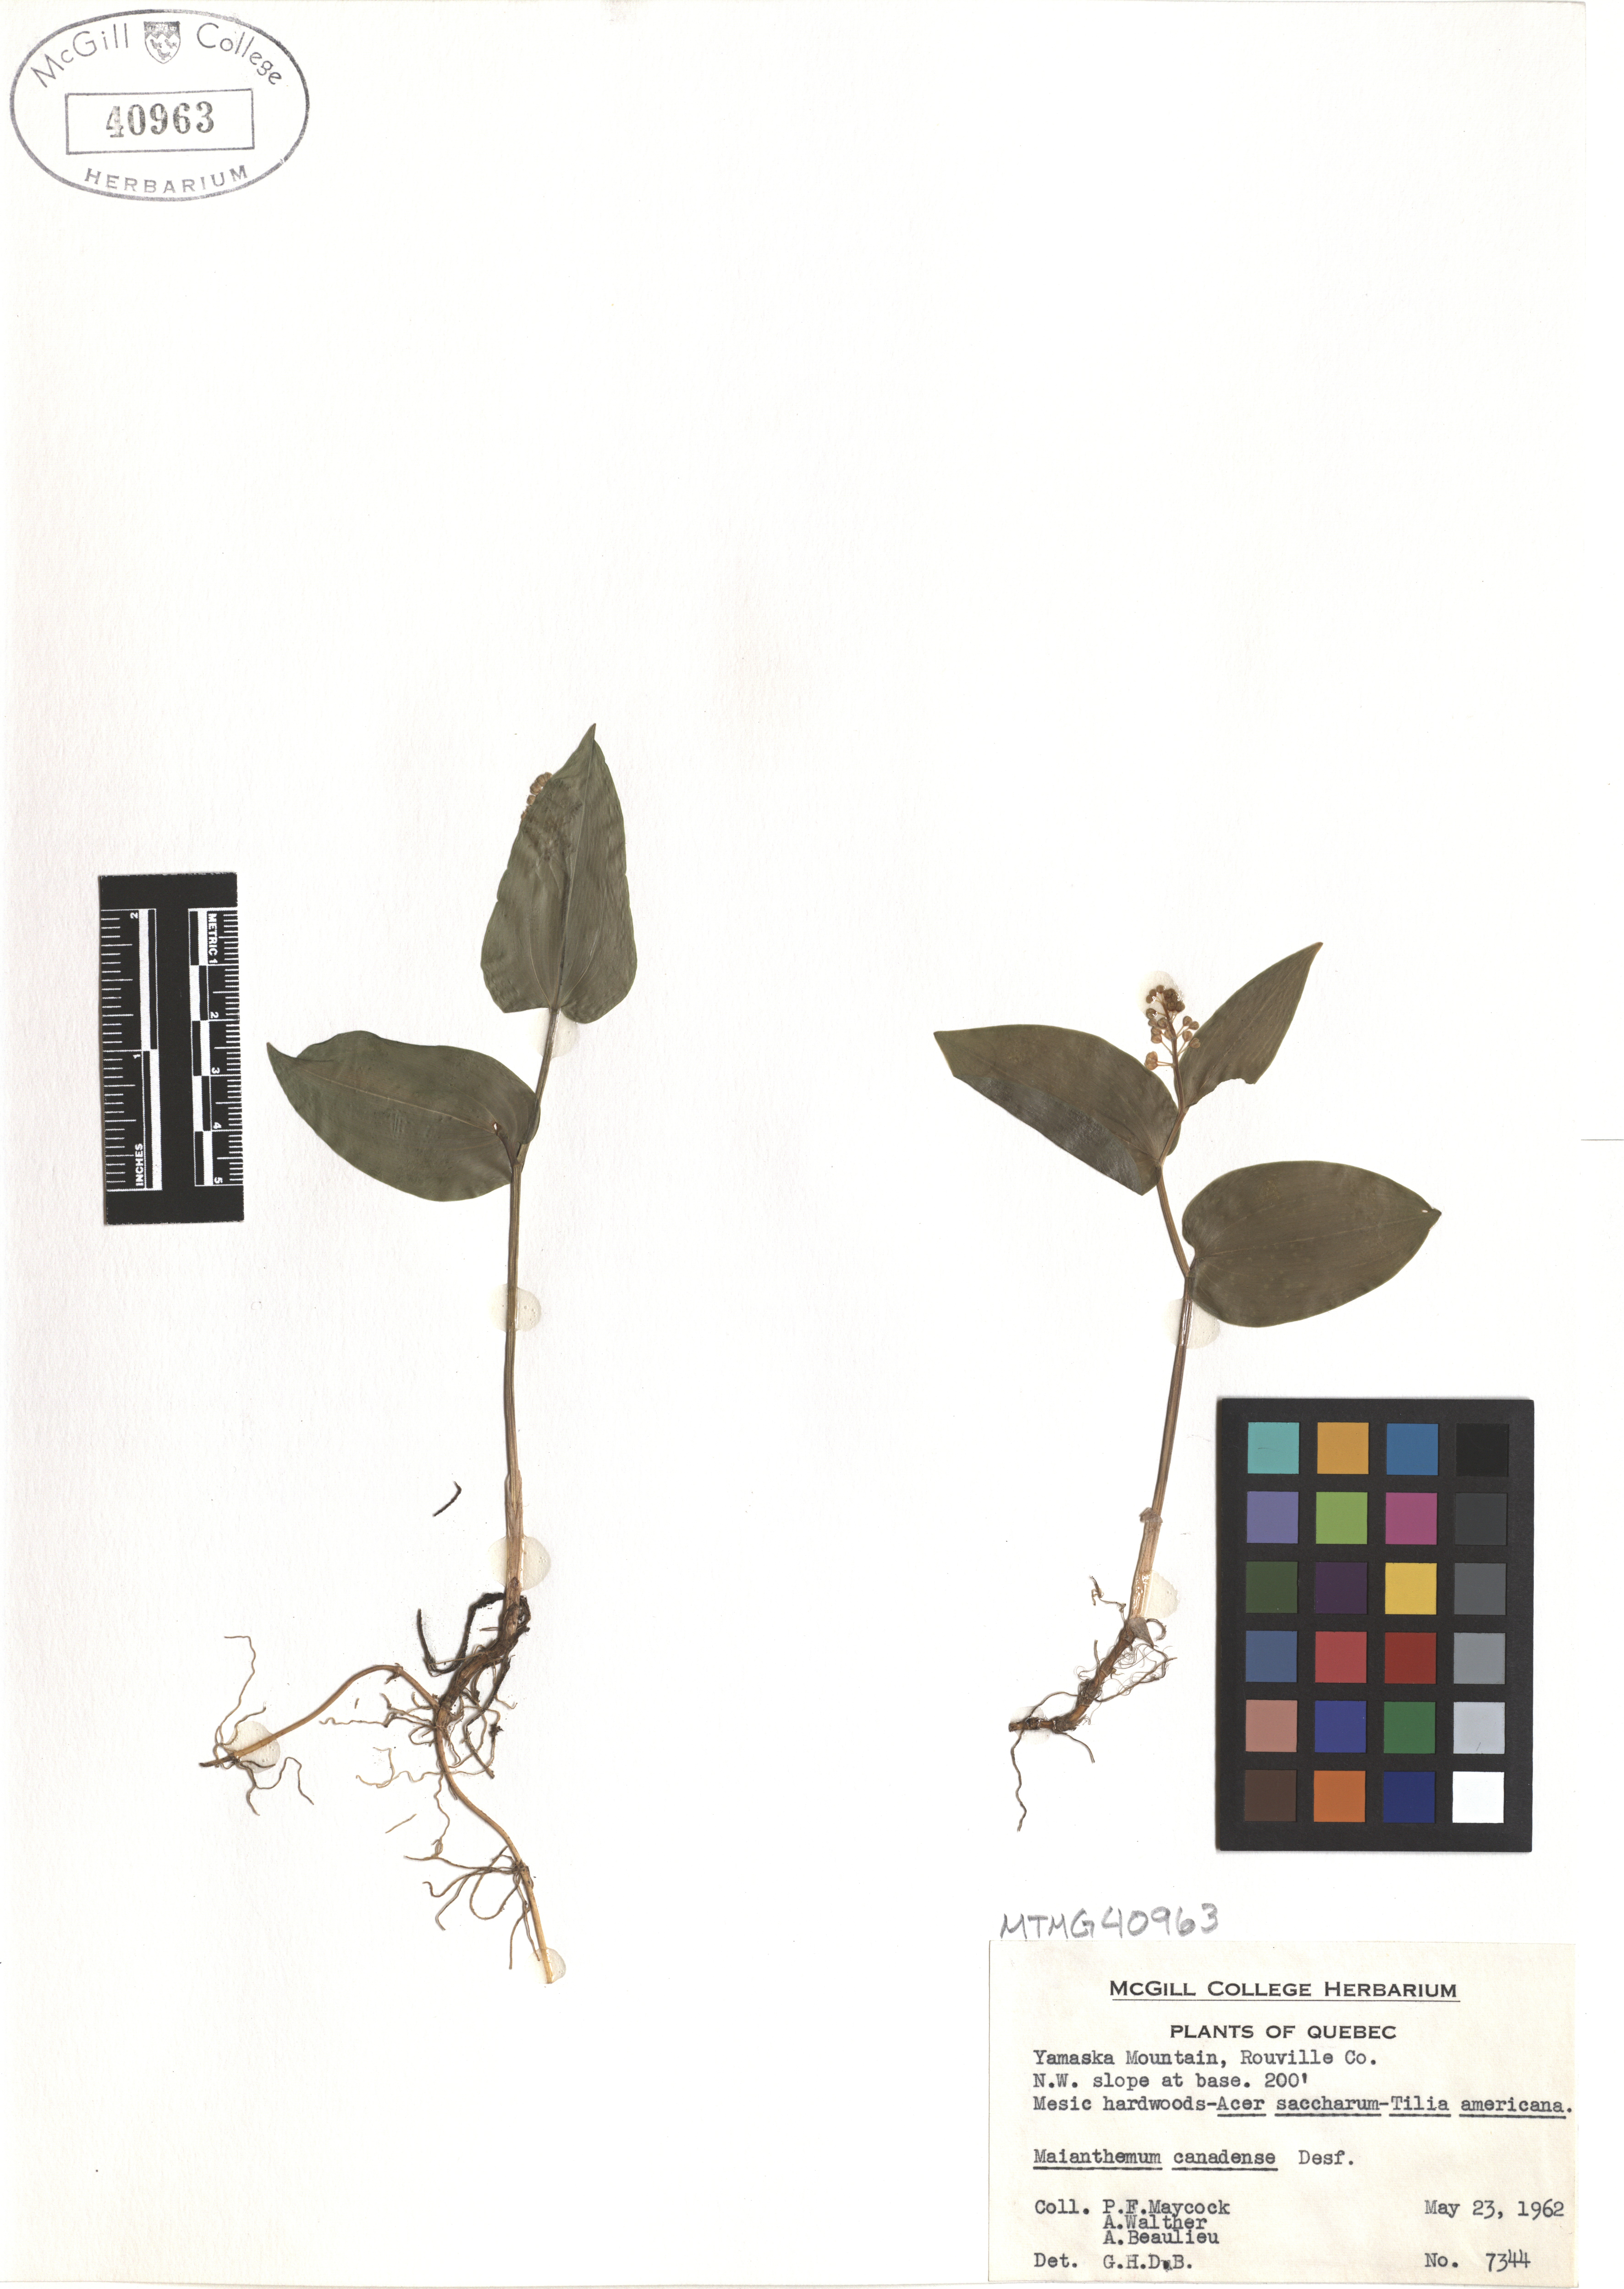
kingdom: Plantae
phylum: Tracheophyta
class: Liliopsida
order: Asparagales
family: Asparagaceae
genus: Maianthemum
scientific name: Maianthemum canadense
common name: False lily-of-the-valley
